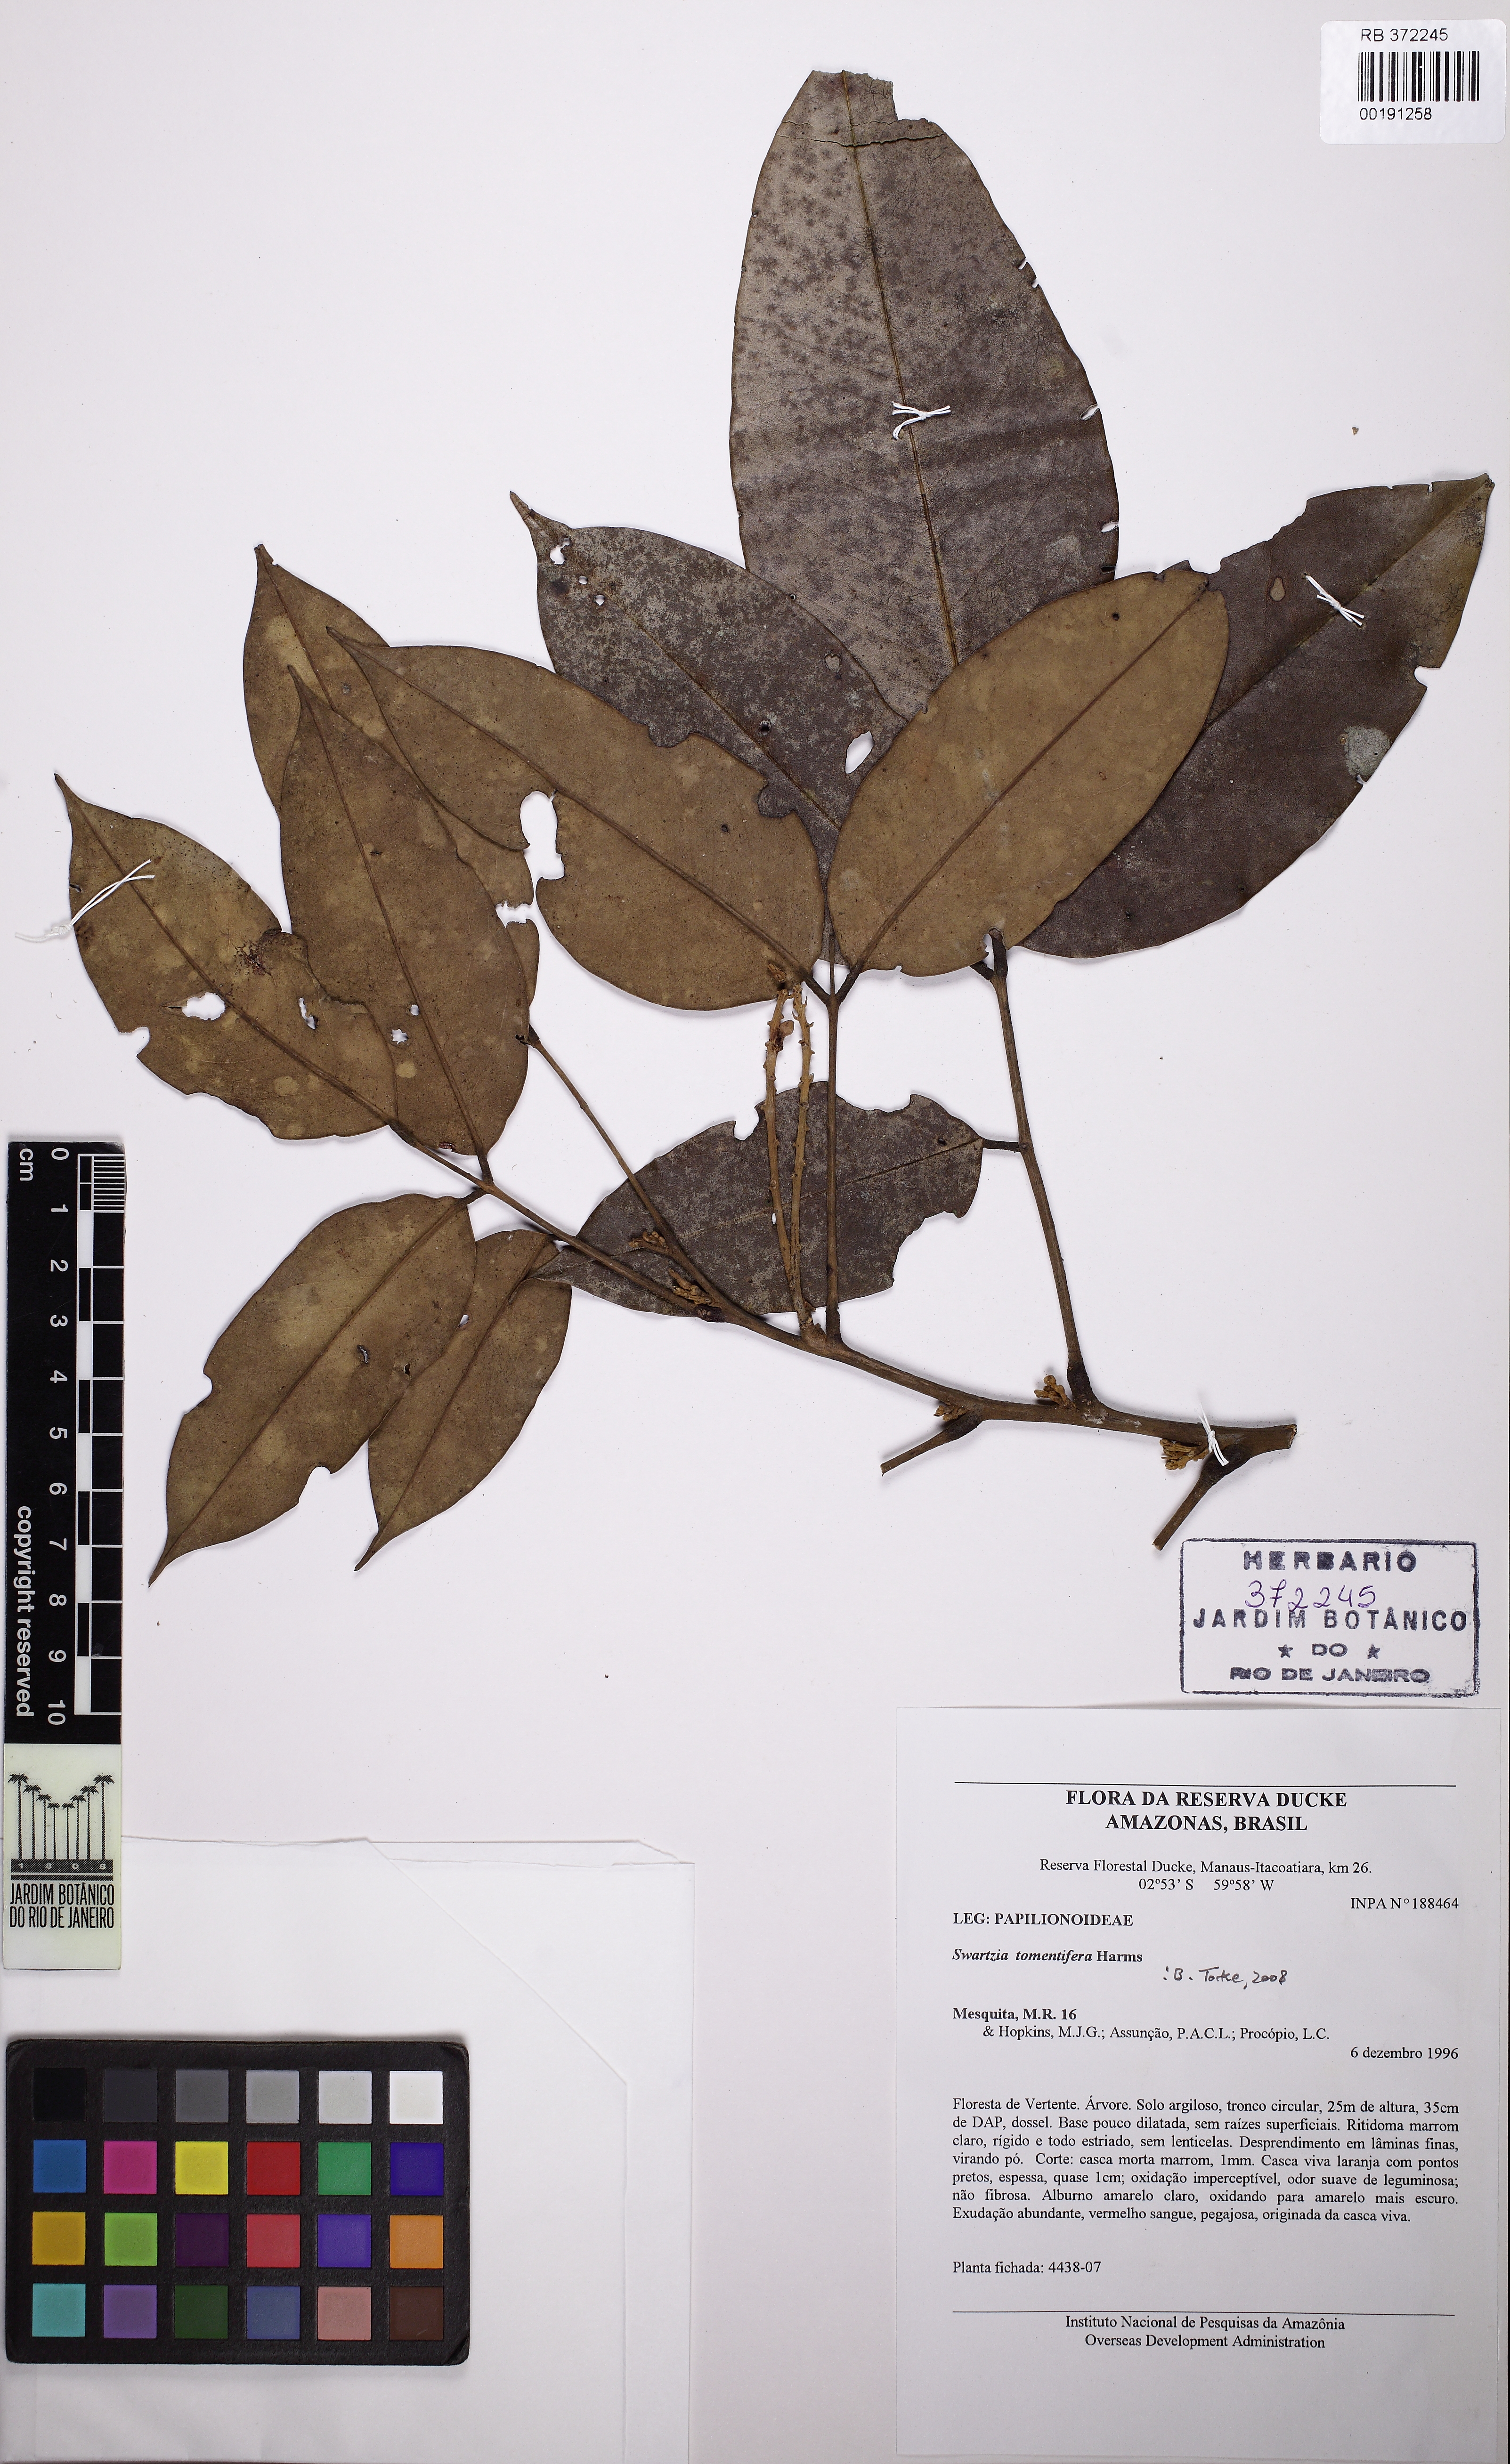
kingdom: Plantae
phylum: Tracheophyta
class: Magnoliopsida
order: Fabales
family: Fabaceae
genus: Swartzia
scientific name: Swartzia tomentifera
